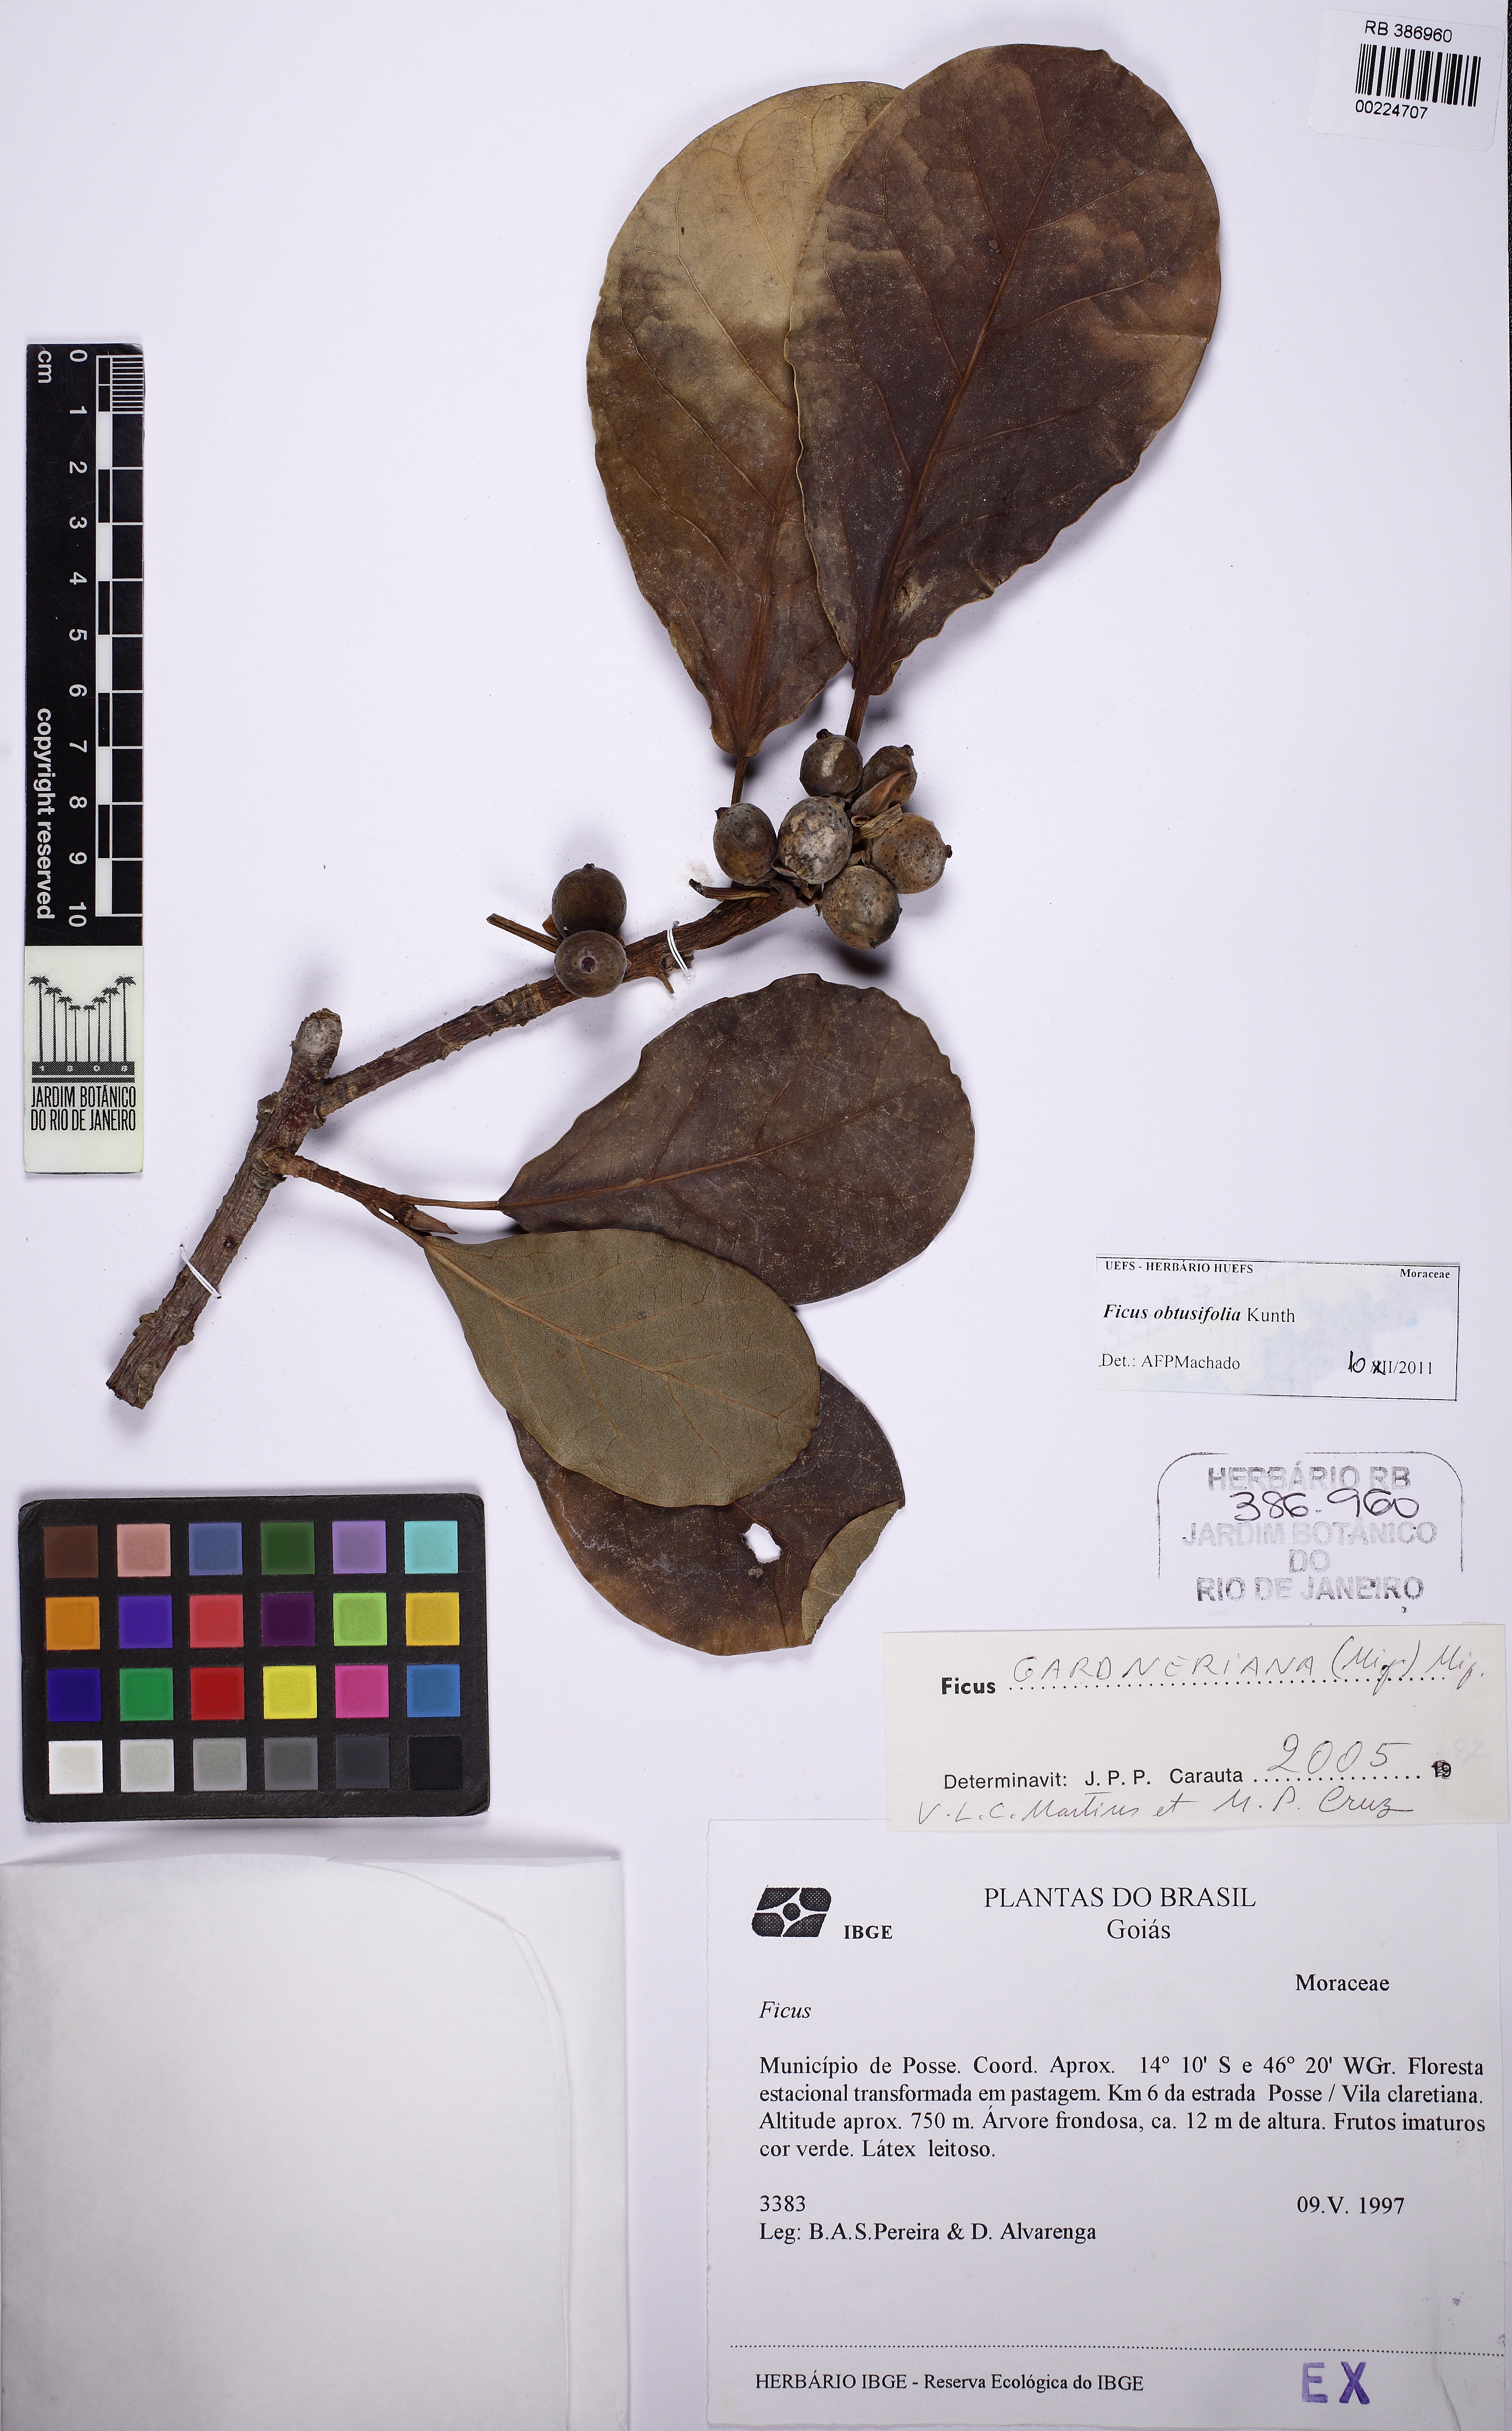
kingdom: Plantae
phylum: Tracheophyta
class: Magnoliopsida
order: Rosales
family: Moraceae
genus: Ficus
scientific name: Ficus obtusifolia
